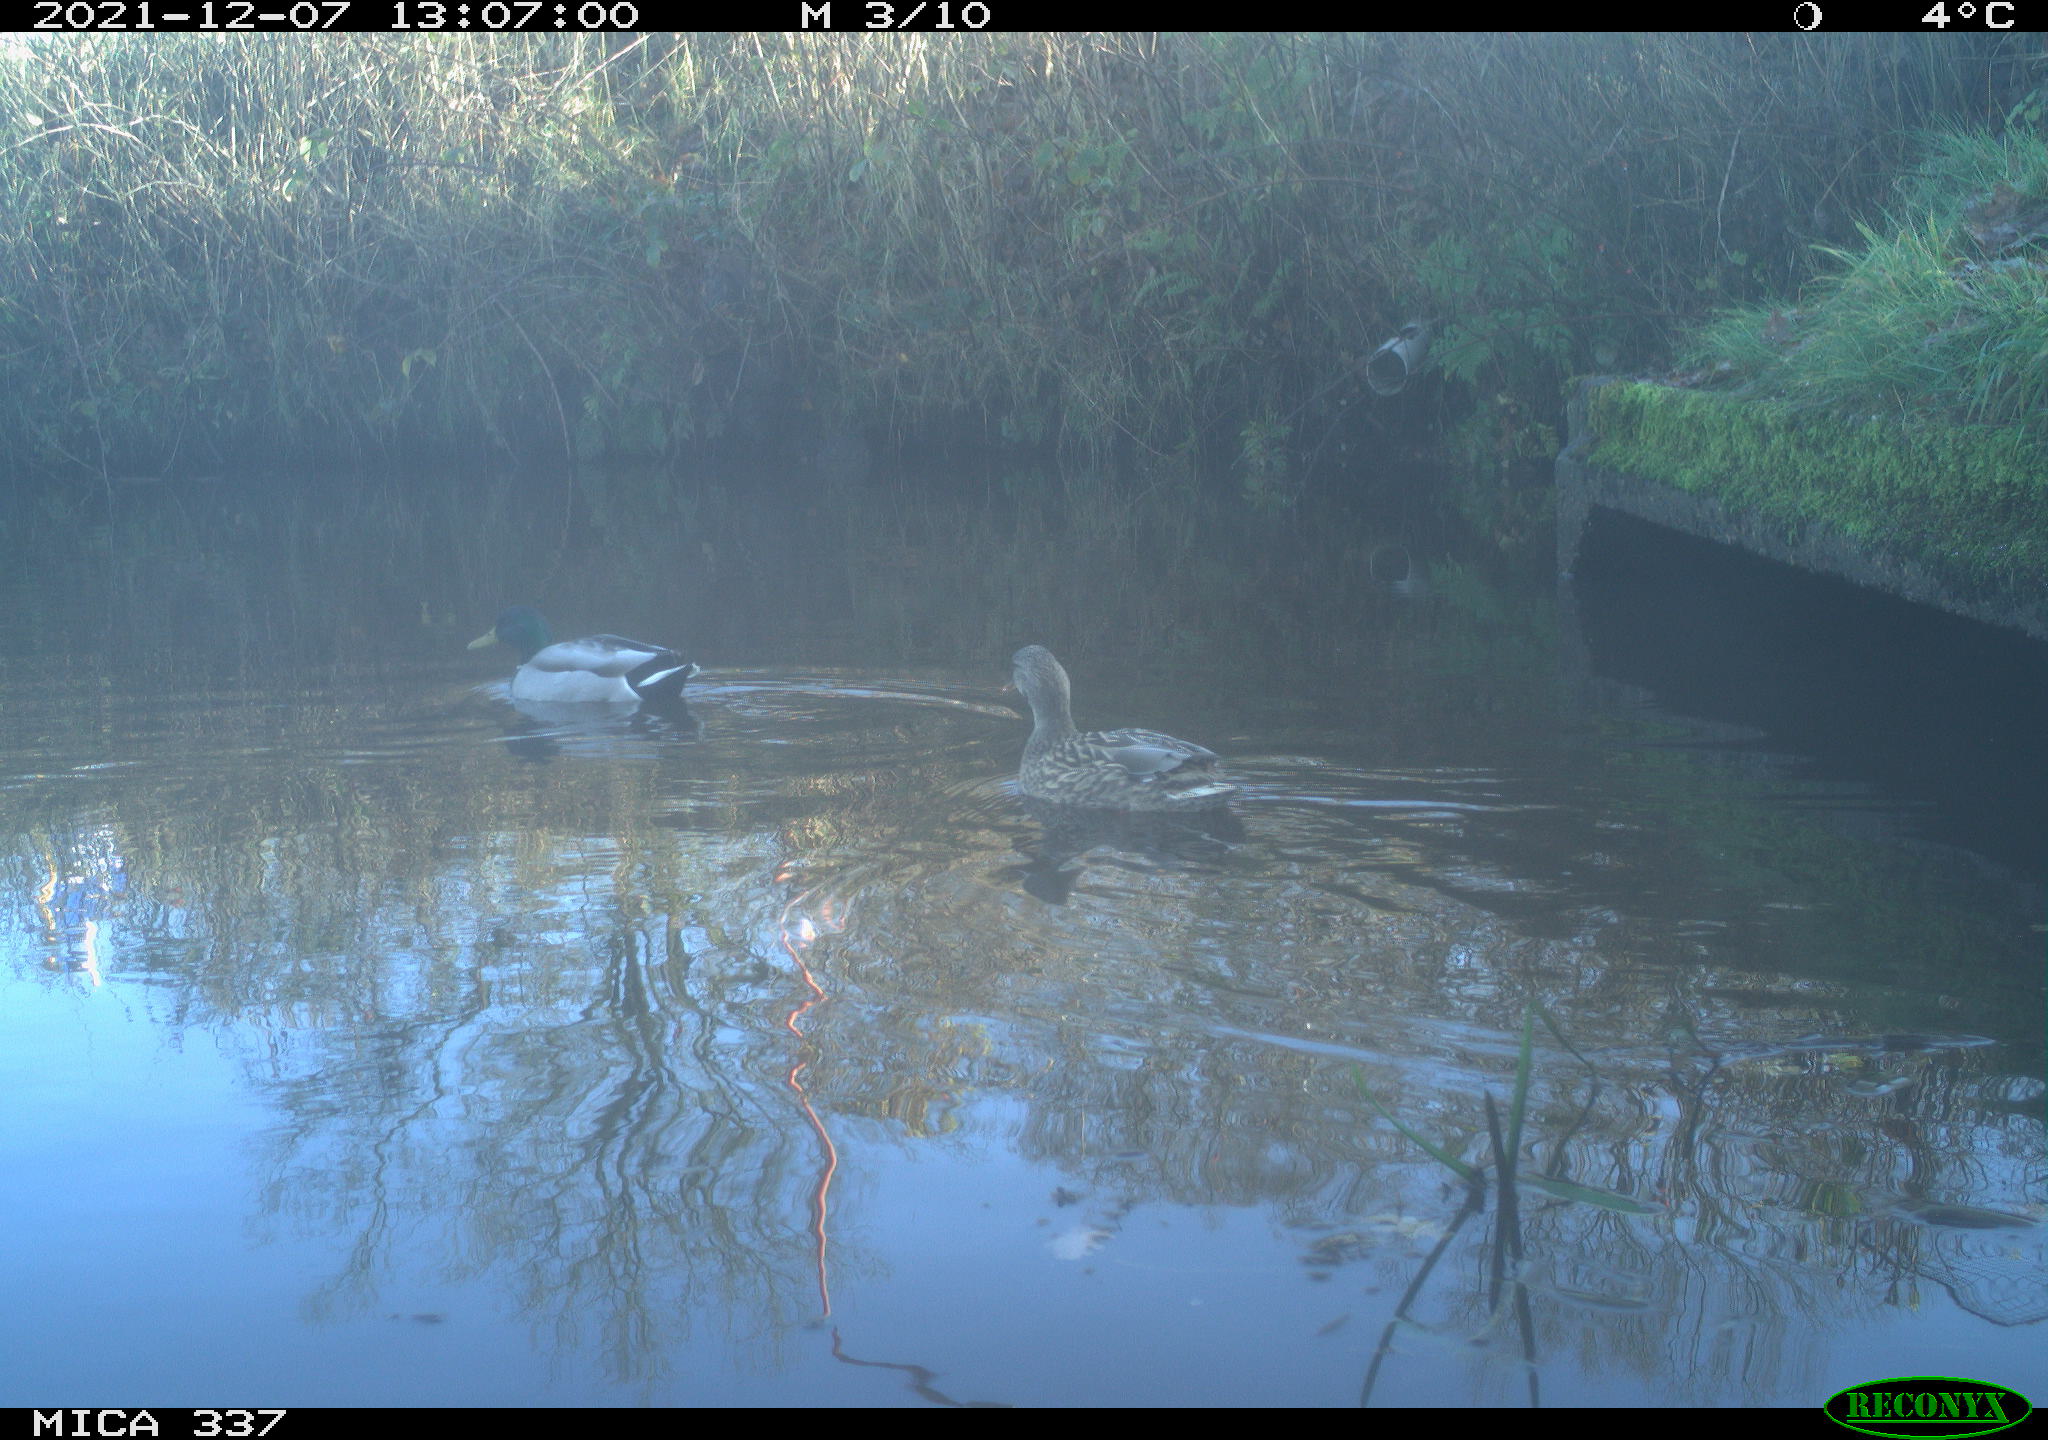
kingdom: Animalia
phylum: Chordata
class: Aves
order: Anseriformes
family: Anatidae
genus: Anas
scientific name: Anas platyrhynchos
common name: Mallard
